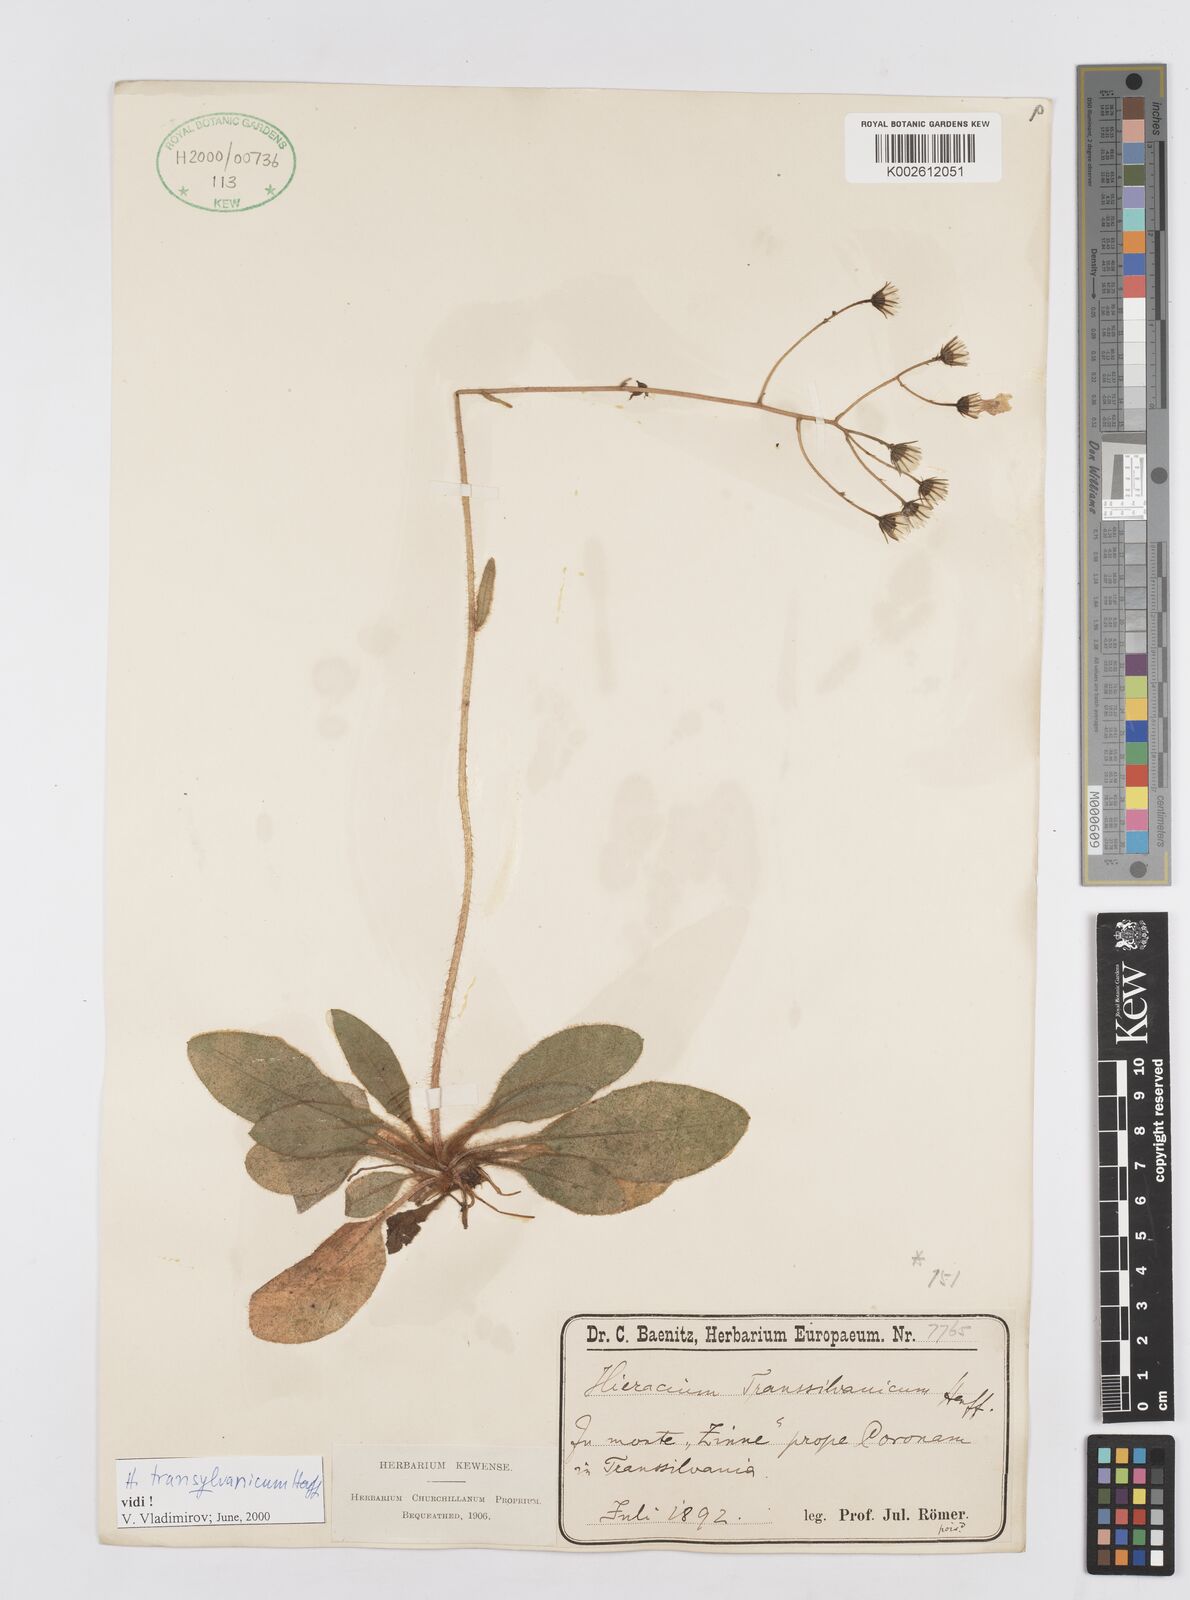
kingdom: Plantae
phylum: Tracheophyta
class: Magnoliopsida
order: Asterales
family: Asteraceae
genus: Hieracium
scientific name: Hieracium transylvanicum
